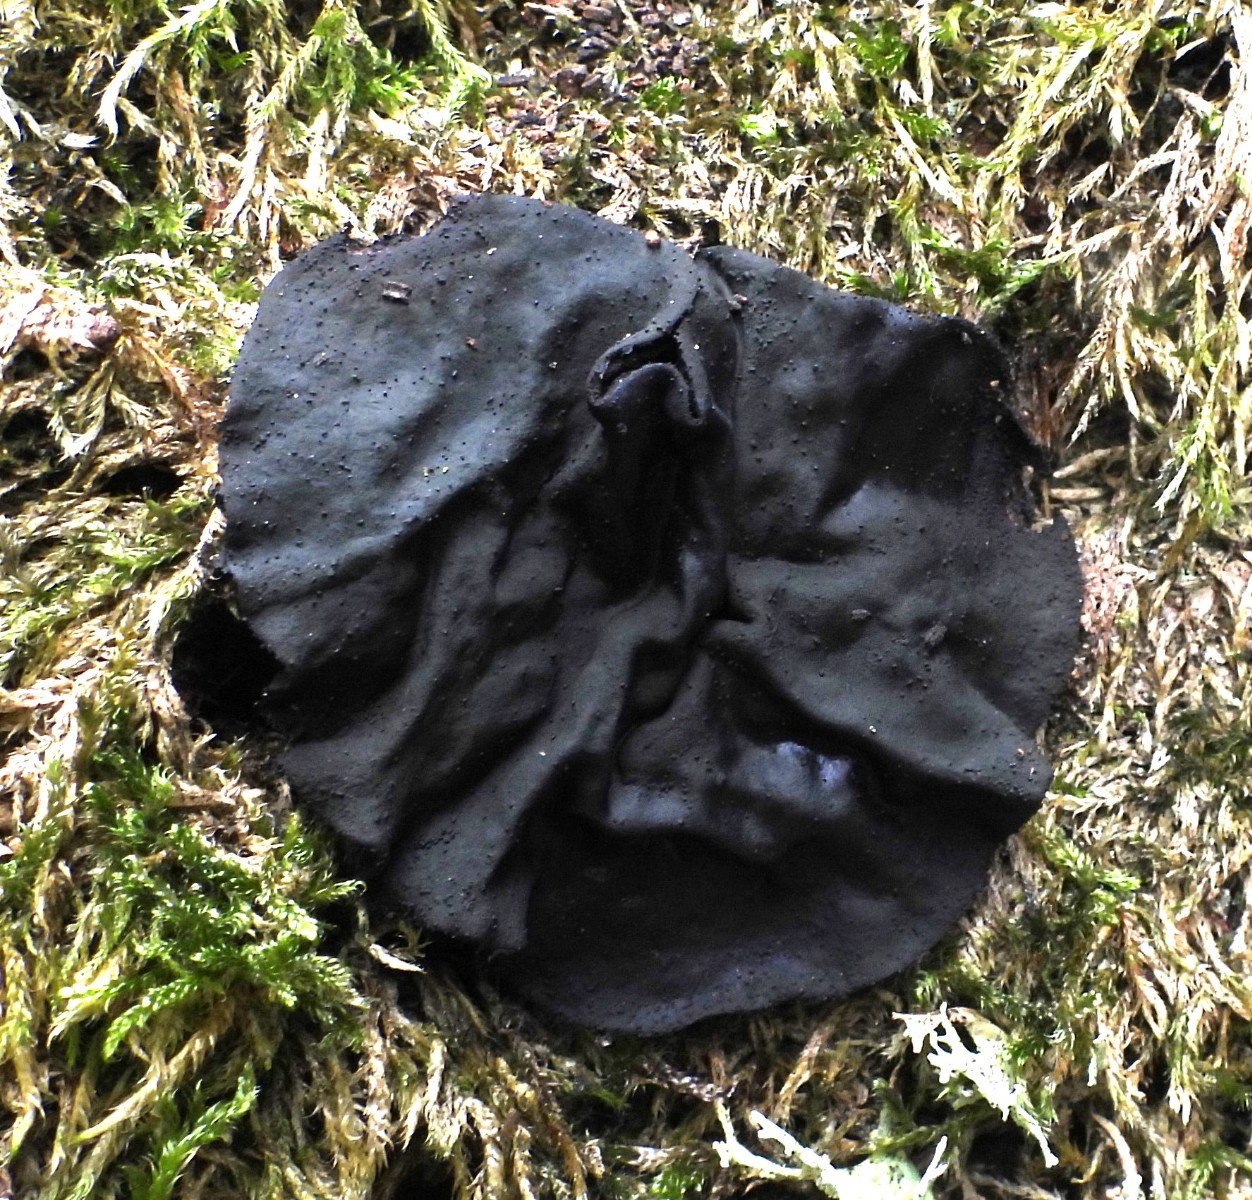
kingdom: Fungi
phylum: Ascomycota
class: Leotiomycetes
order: Phacidiales
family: Phacidiaceae
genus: Bulgaria
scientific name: Bulgaria inquinans
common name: afsmittende topsvamp
